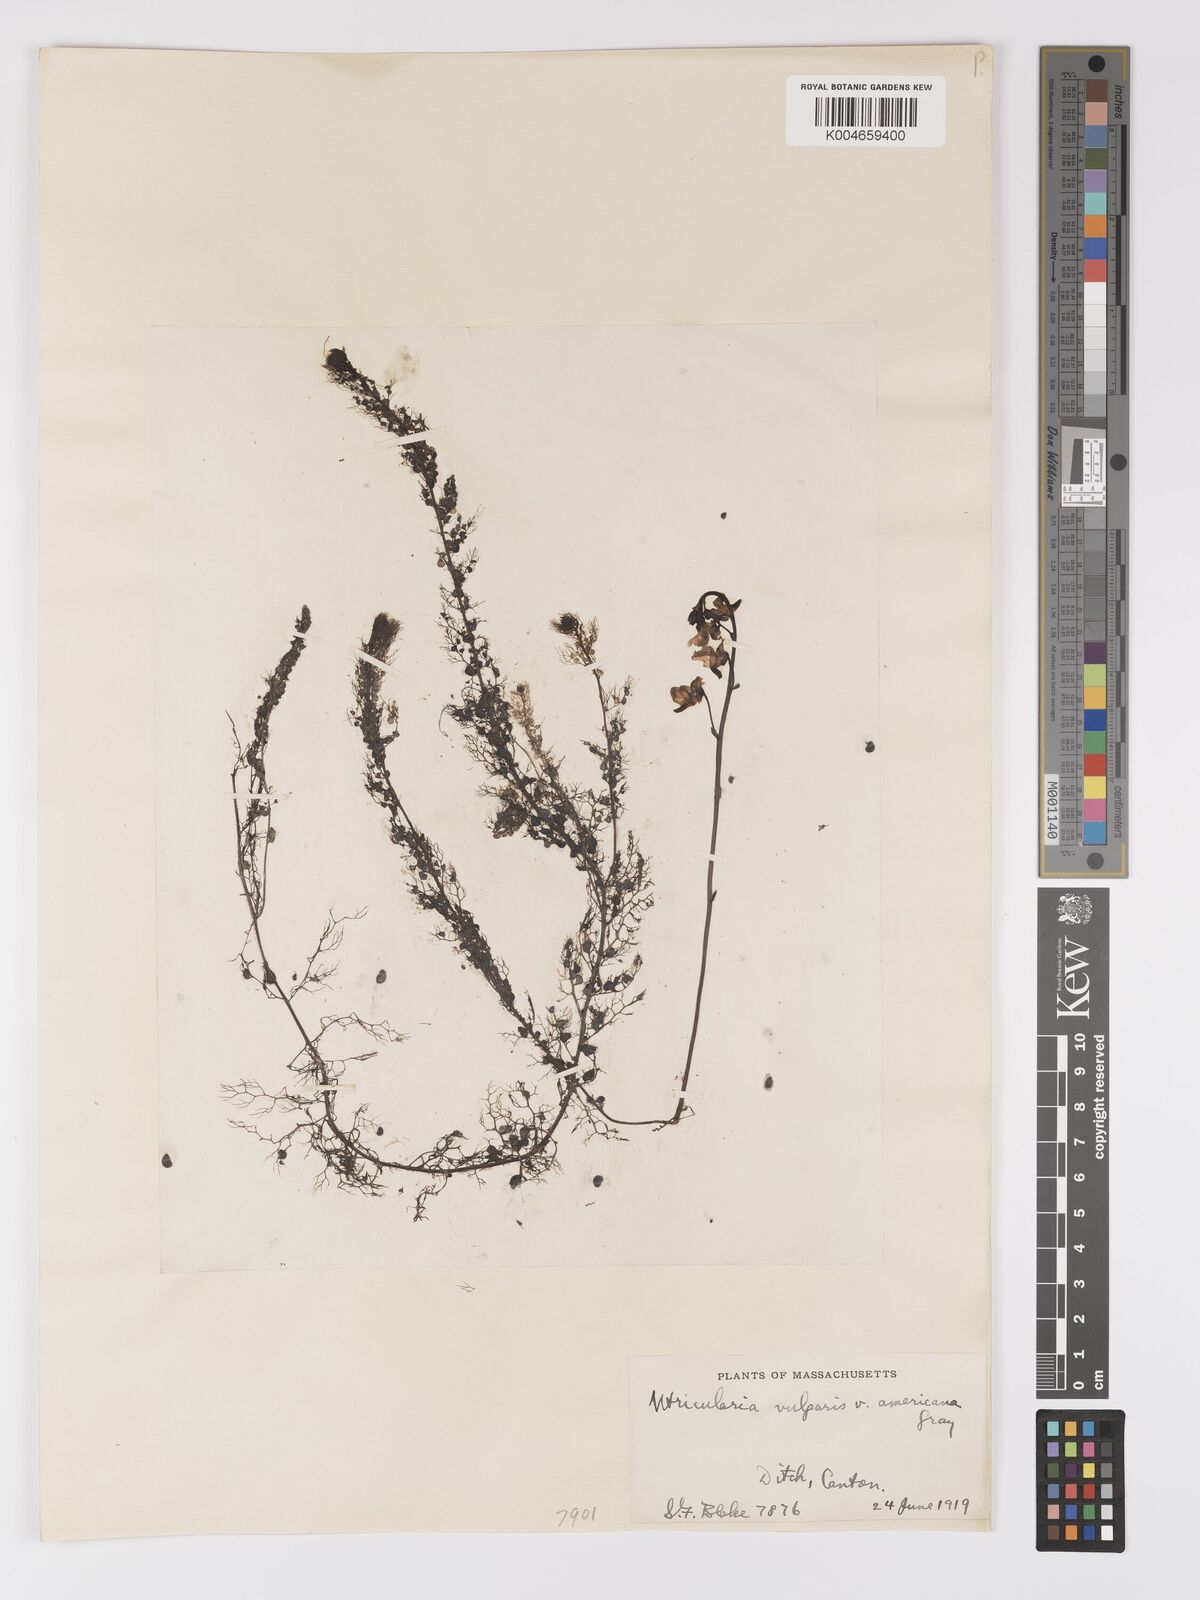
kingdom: Plantae
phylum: Tracheophyta
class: Magnoliopsida
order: Lamiales
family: Lentibulariaceae
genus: Utricularia
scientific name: Utricularia macrorhiza
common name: Common bladderwort
